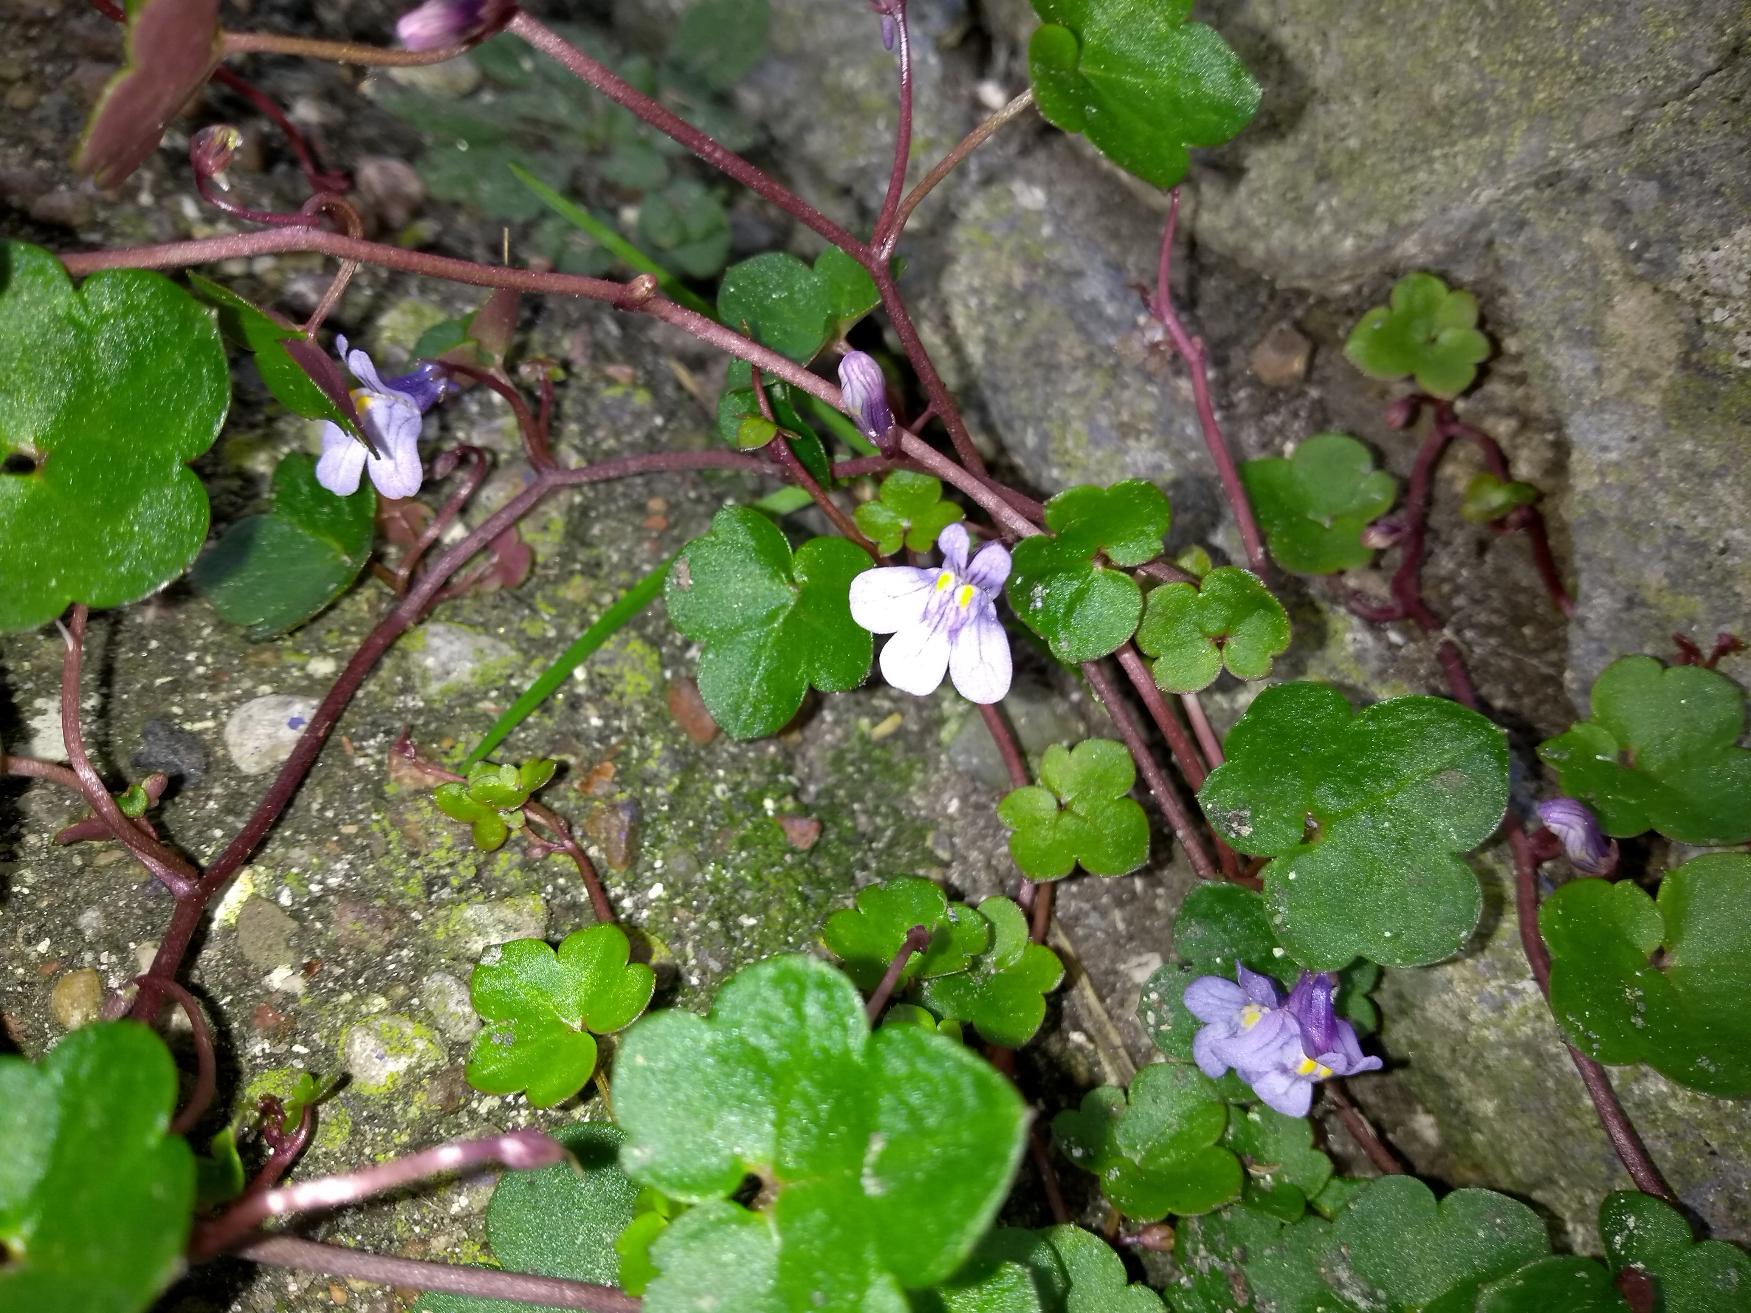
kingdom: Plantae
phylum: Tracheophyta
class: Magnoliopsida
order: Lamiales
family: Plantaginaceae
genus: Cymbalaria
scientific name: Cymbalaria muralis
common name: Vedbend-torskemund
